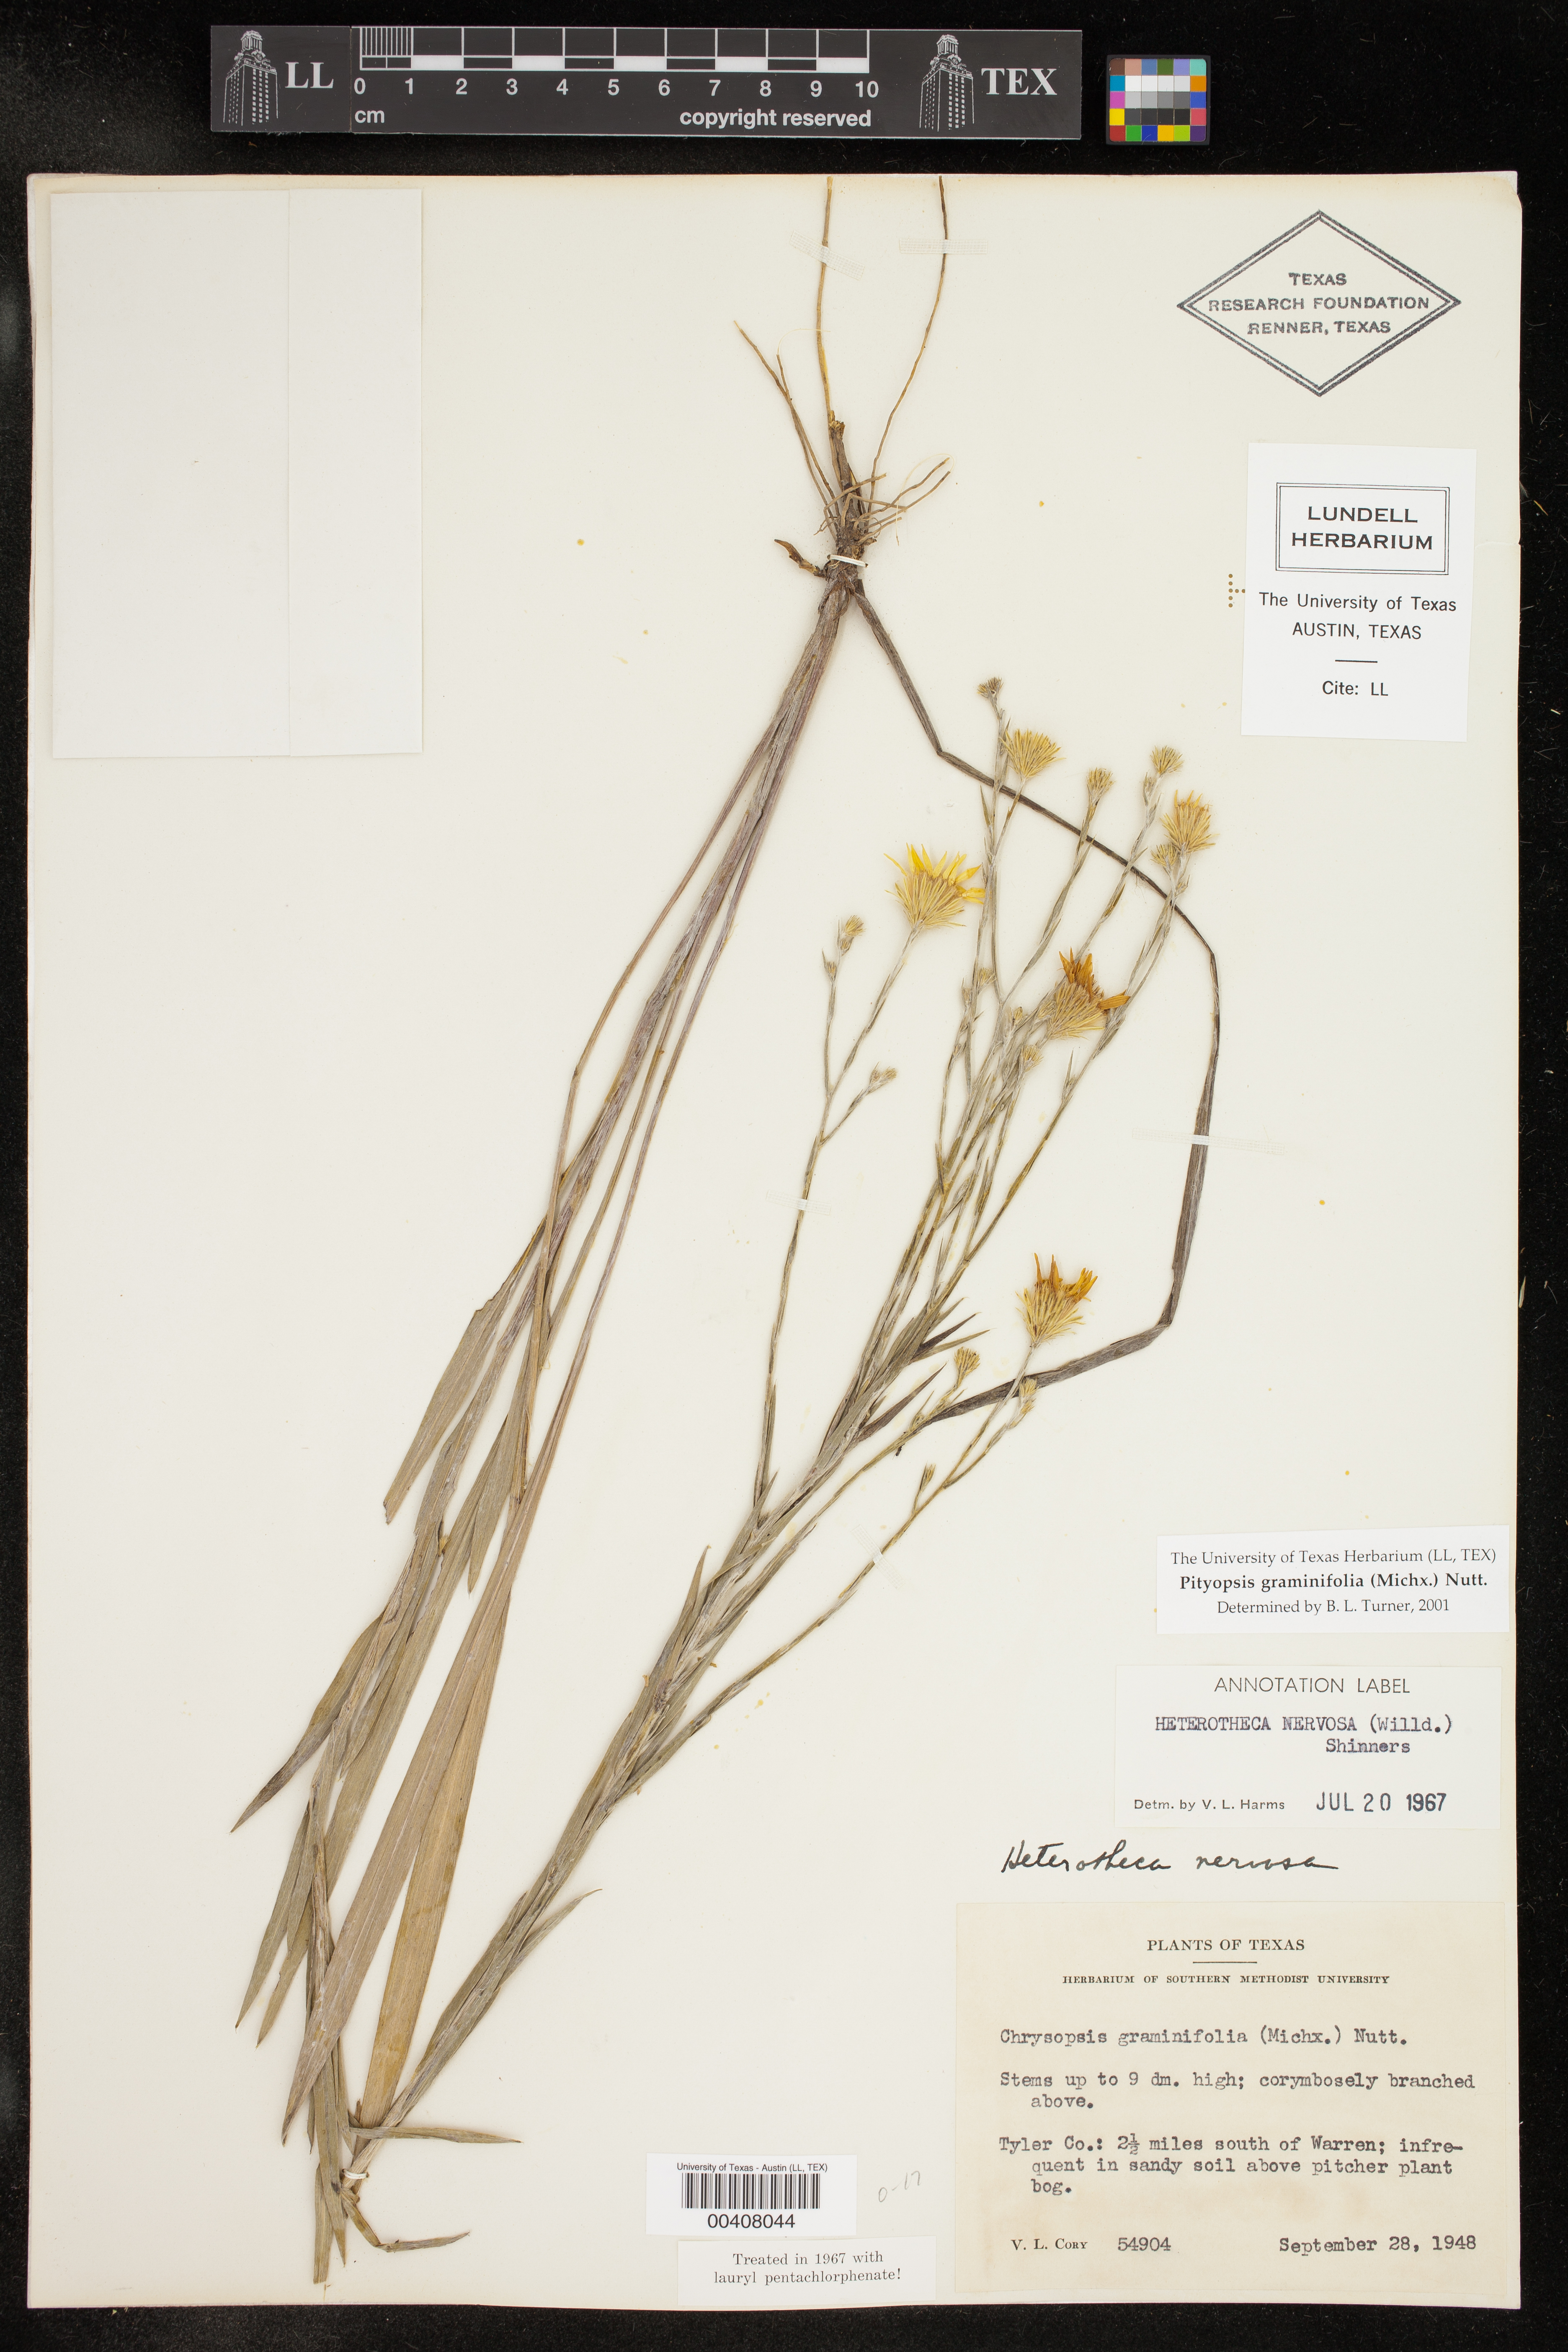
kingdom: Plantae
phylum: Tracheophyta
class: Magnoliopsida
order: Asterales
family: Asteraceae
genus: Pityopsis
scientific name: Pityopsis graminifolia
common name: Grass-leaf golden-aster
